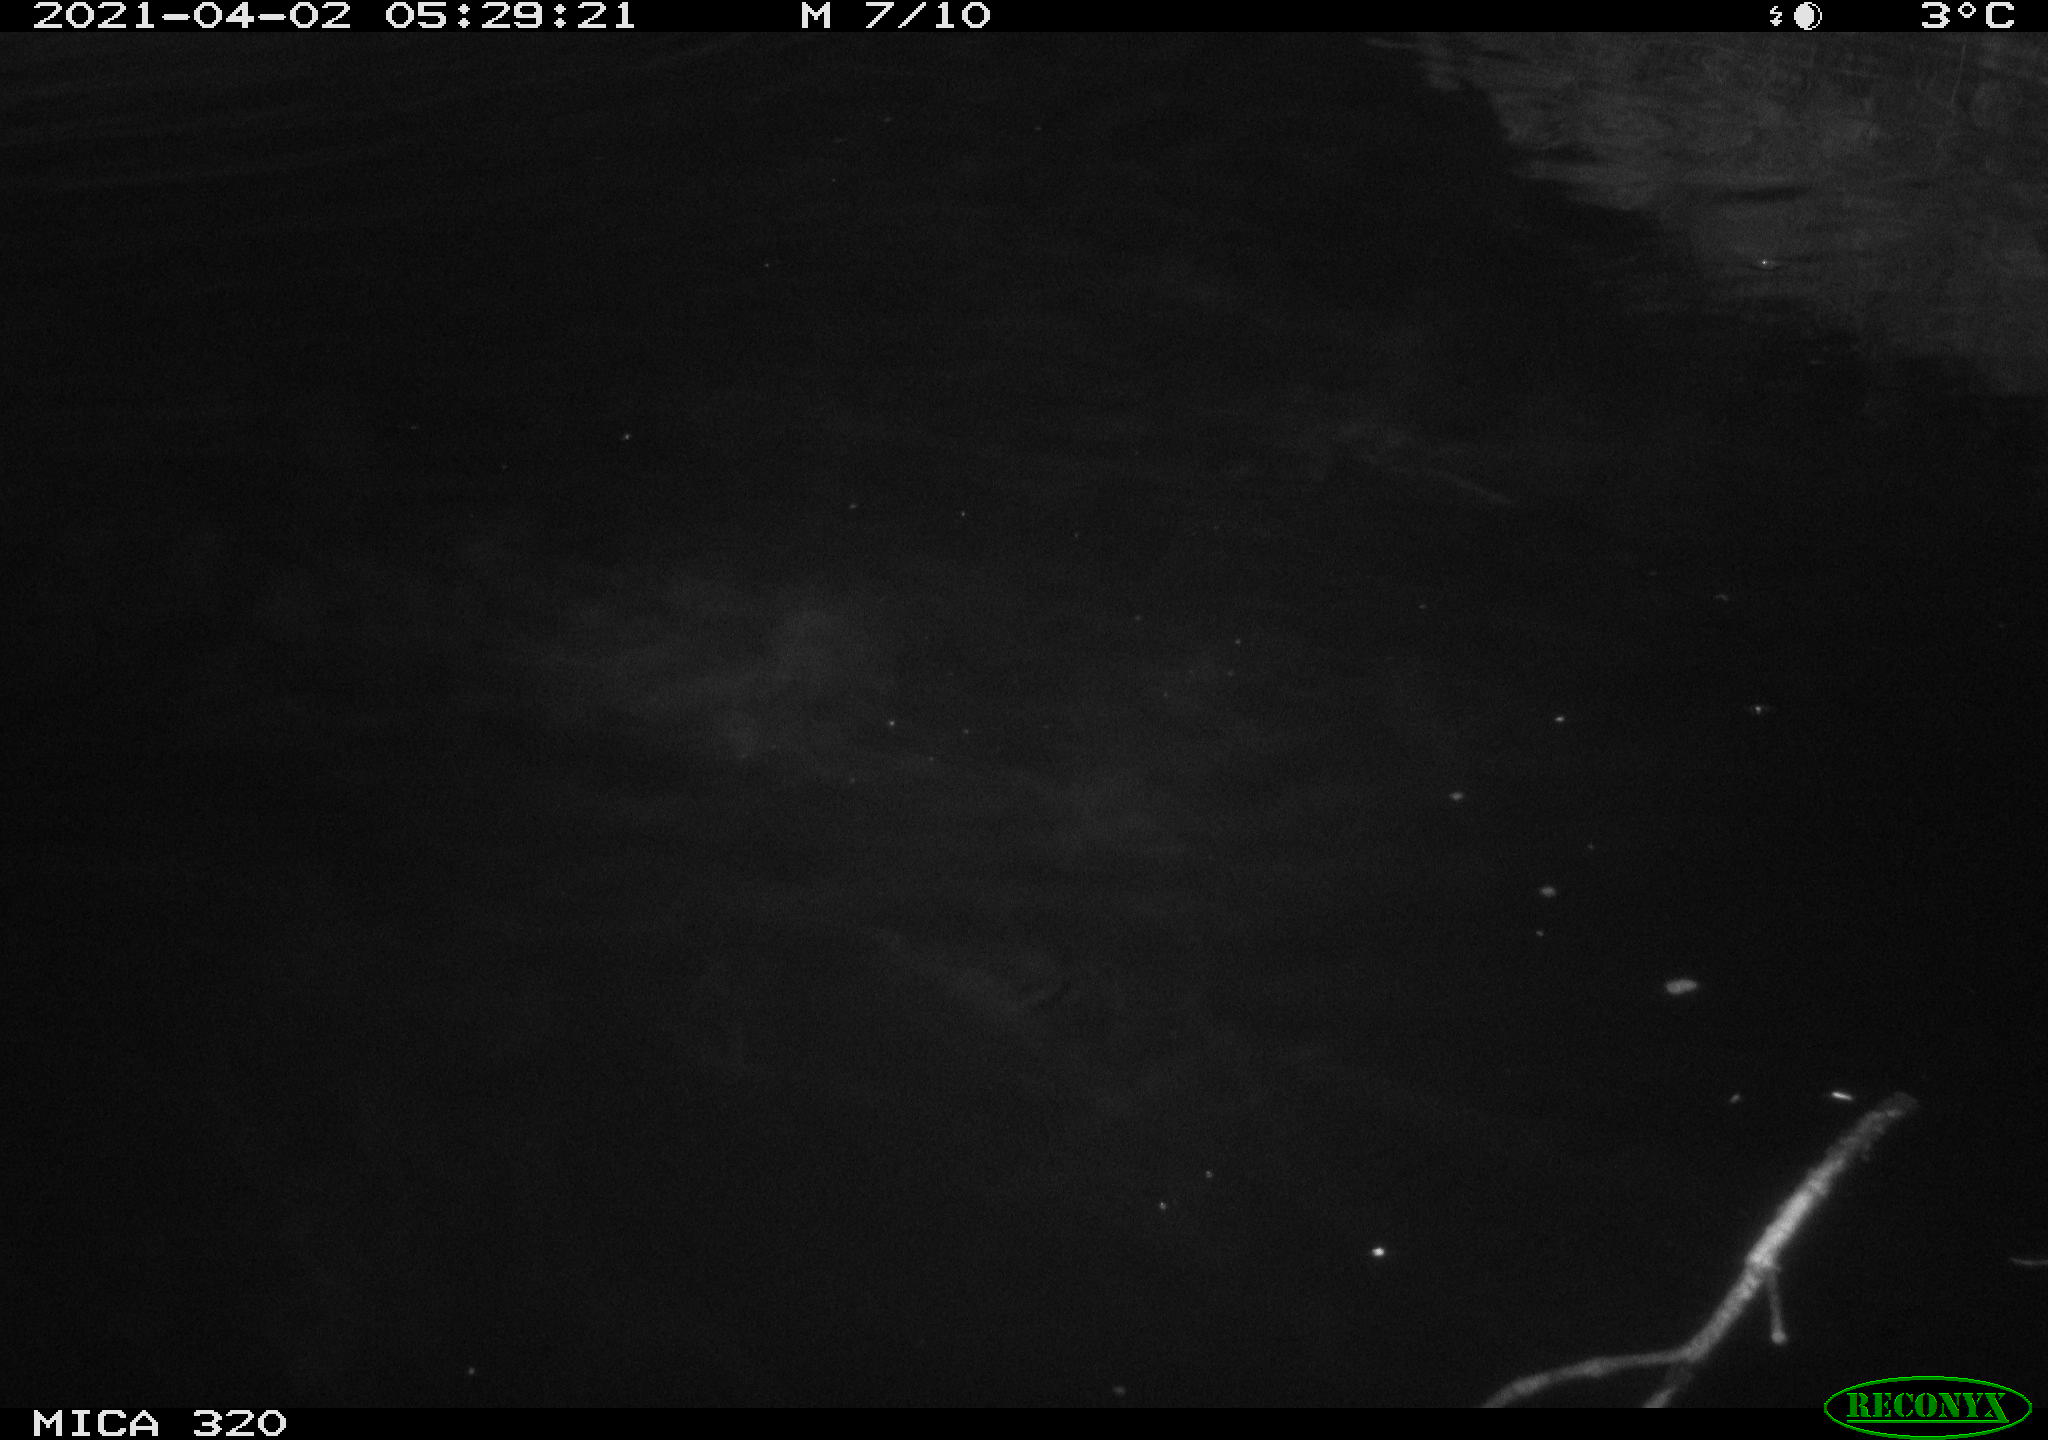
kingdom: Animalia
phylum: Chordata
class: Aves
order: Anseriformes
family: Anatidae
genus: Anas
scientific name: Anas platyrhynchos
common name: Mallard
